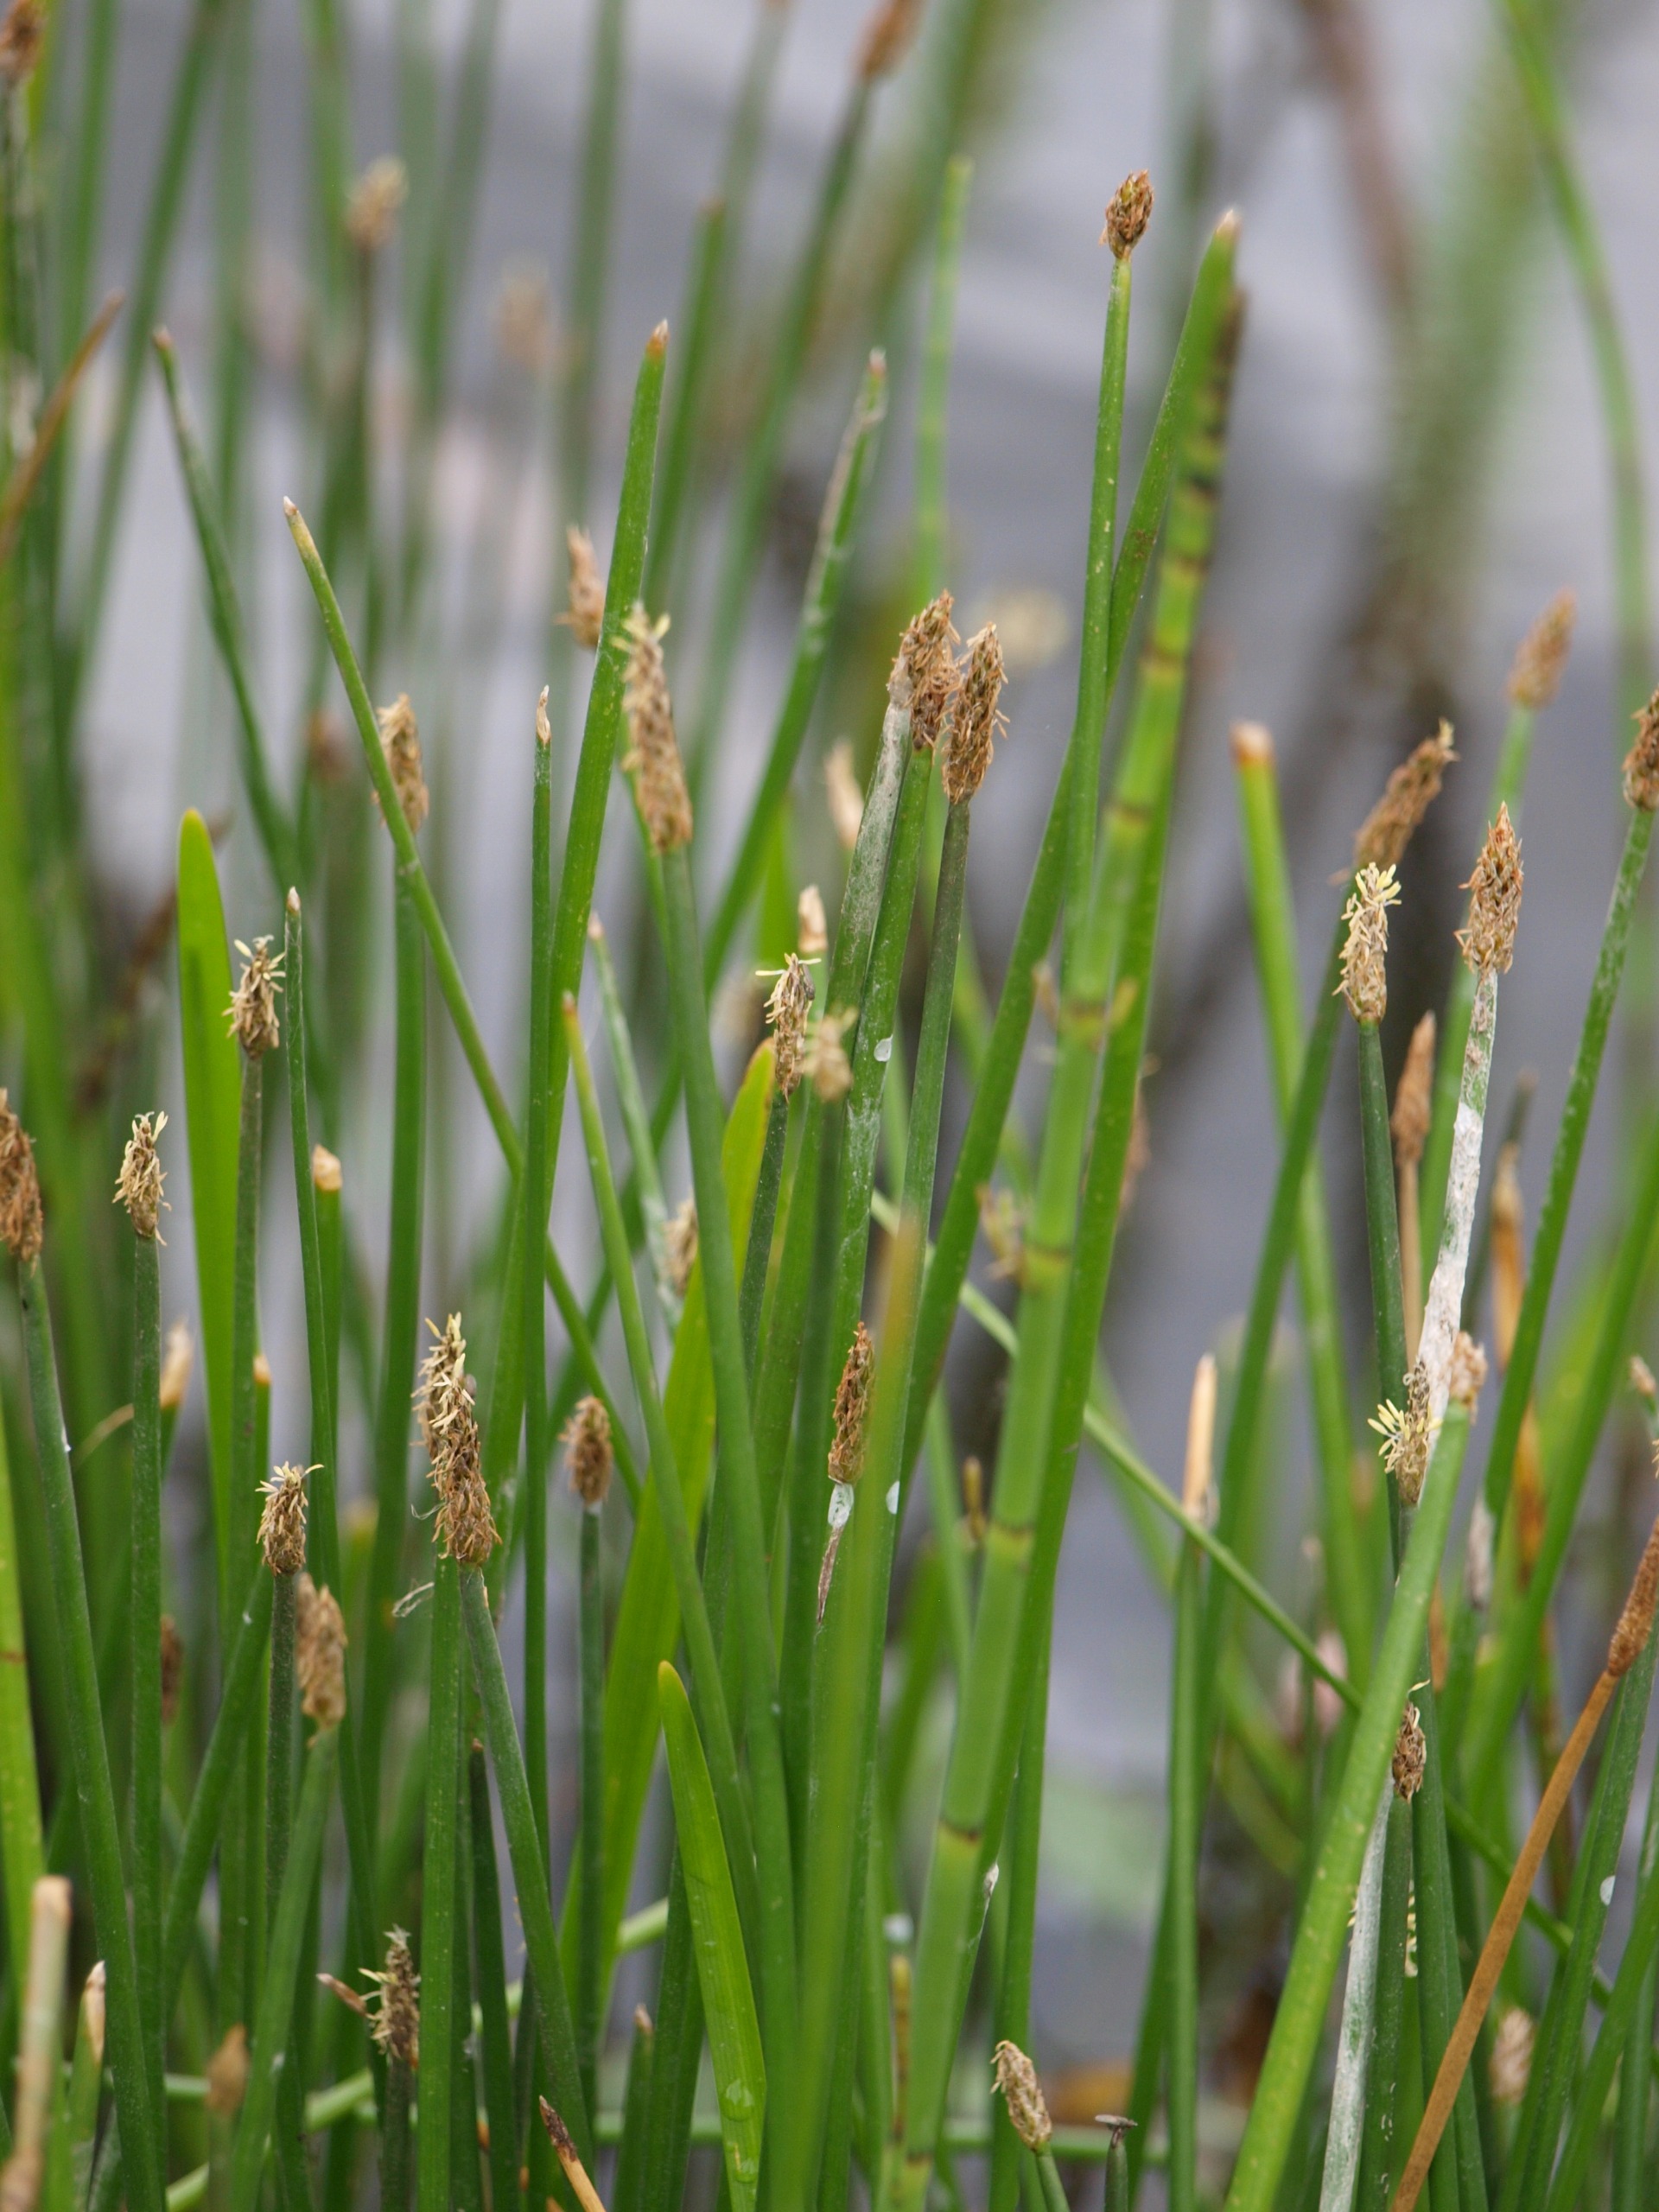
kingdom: Plantae
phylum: Tracheophyta
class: Liliopsida
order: Poales
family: Cyperaceae
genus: Eleocharis
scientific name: Eleocharis palustris
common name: Almindelig sumpstrå
